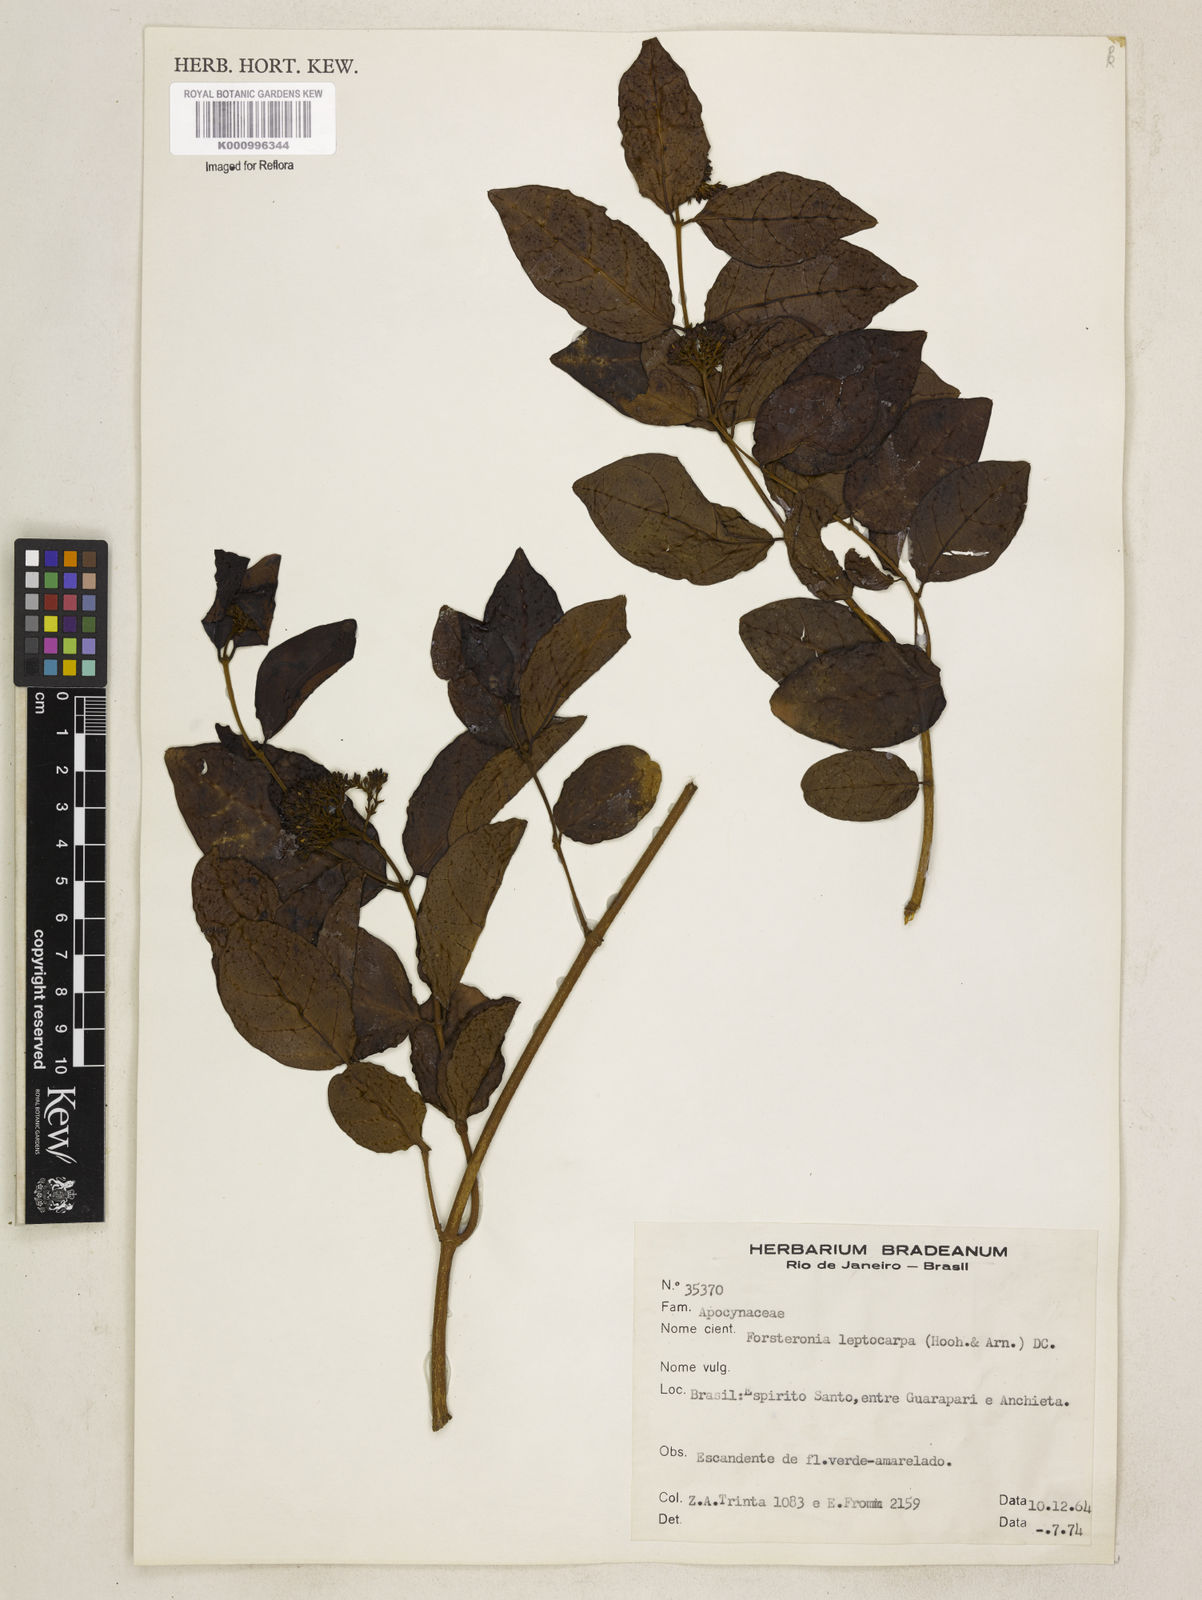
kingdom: Plantae
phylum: Tracheophyta
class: Magnoliopsida
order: Gentianales
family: Apocynaceae
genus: Forsteronia
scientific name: Forsteronia leptocarpa
